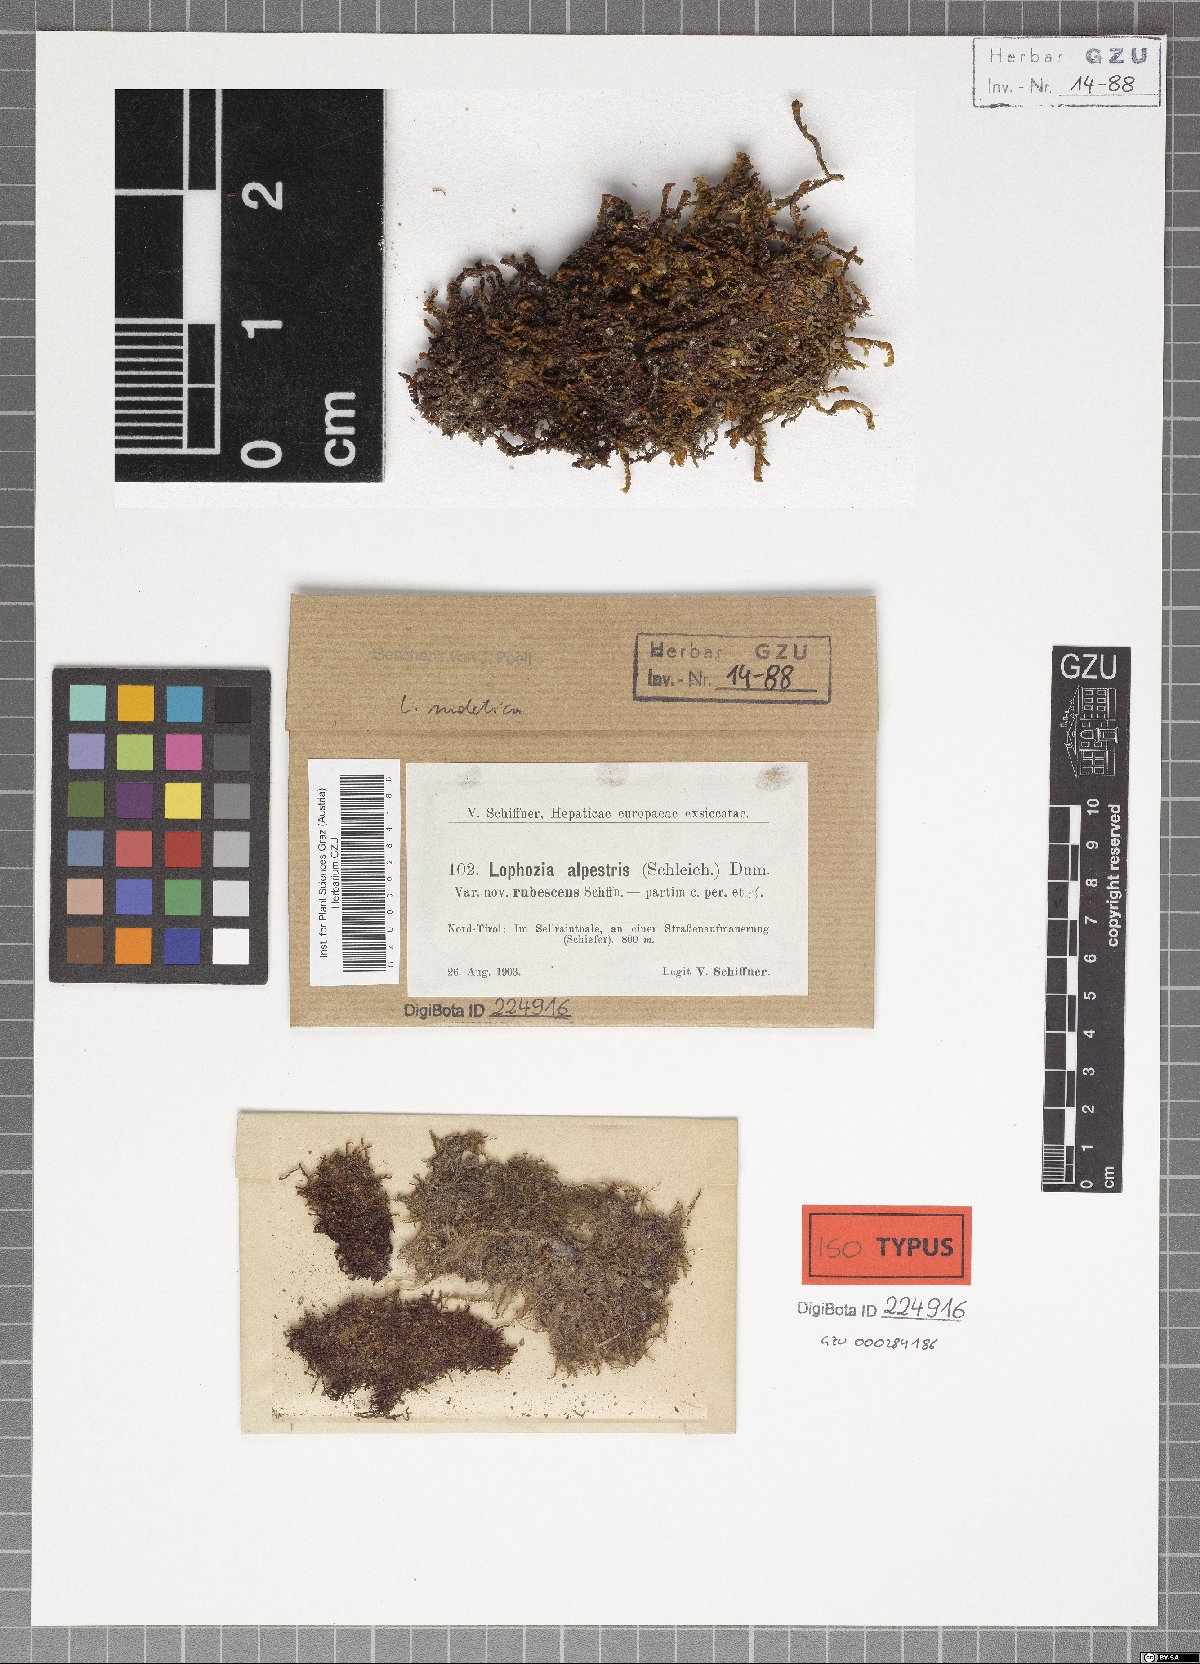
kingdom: Plantae
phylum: Marchantiophyta
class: Jungermanniopsida
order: Jungermanniales
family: Jungermanniaceae
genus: Mesoptychia
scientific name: Mesoptychia collaris
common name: Collared notchwort
